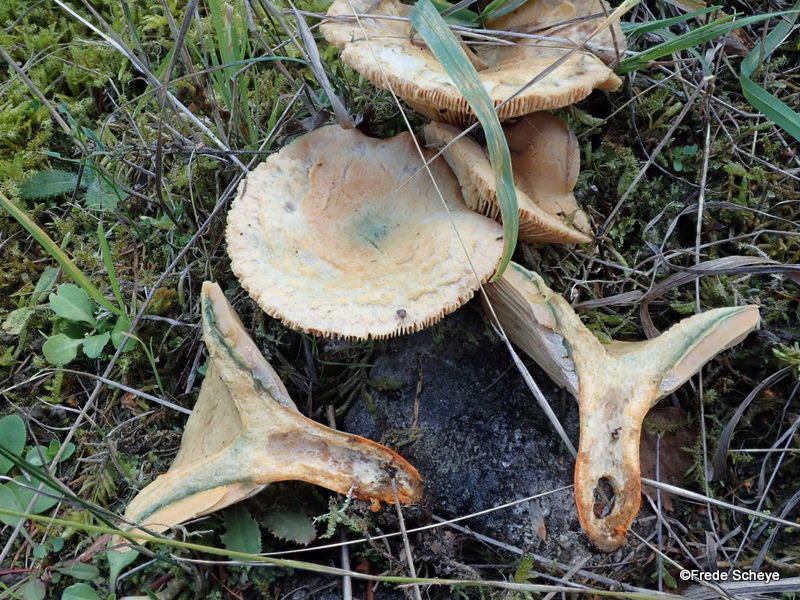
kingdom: Fungi
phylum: Basidiomycota
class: Agaricomycetes
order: Russulales
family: Russulaceae
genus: Lactarius
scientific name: Lactarius deterrimus
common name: gran-mælkehat
